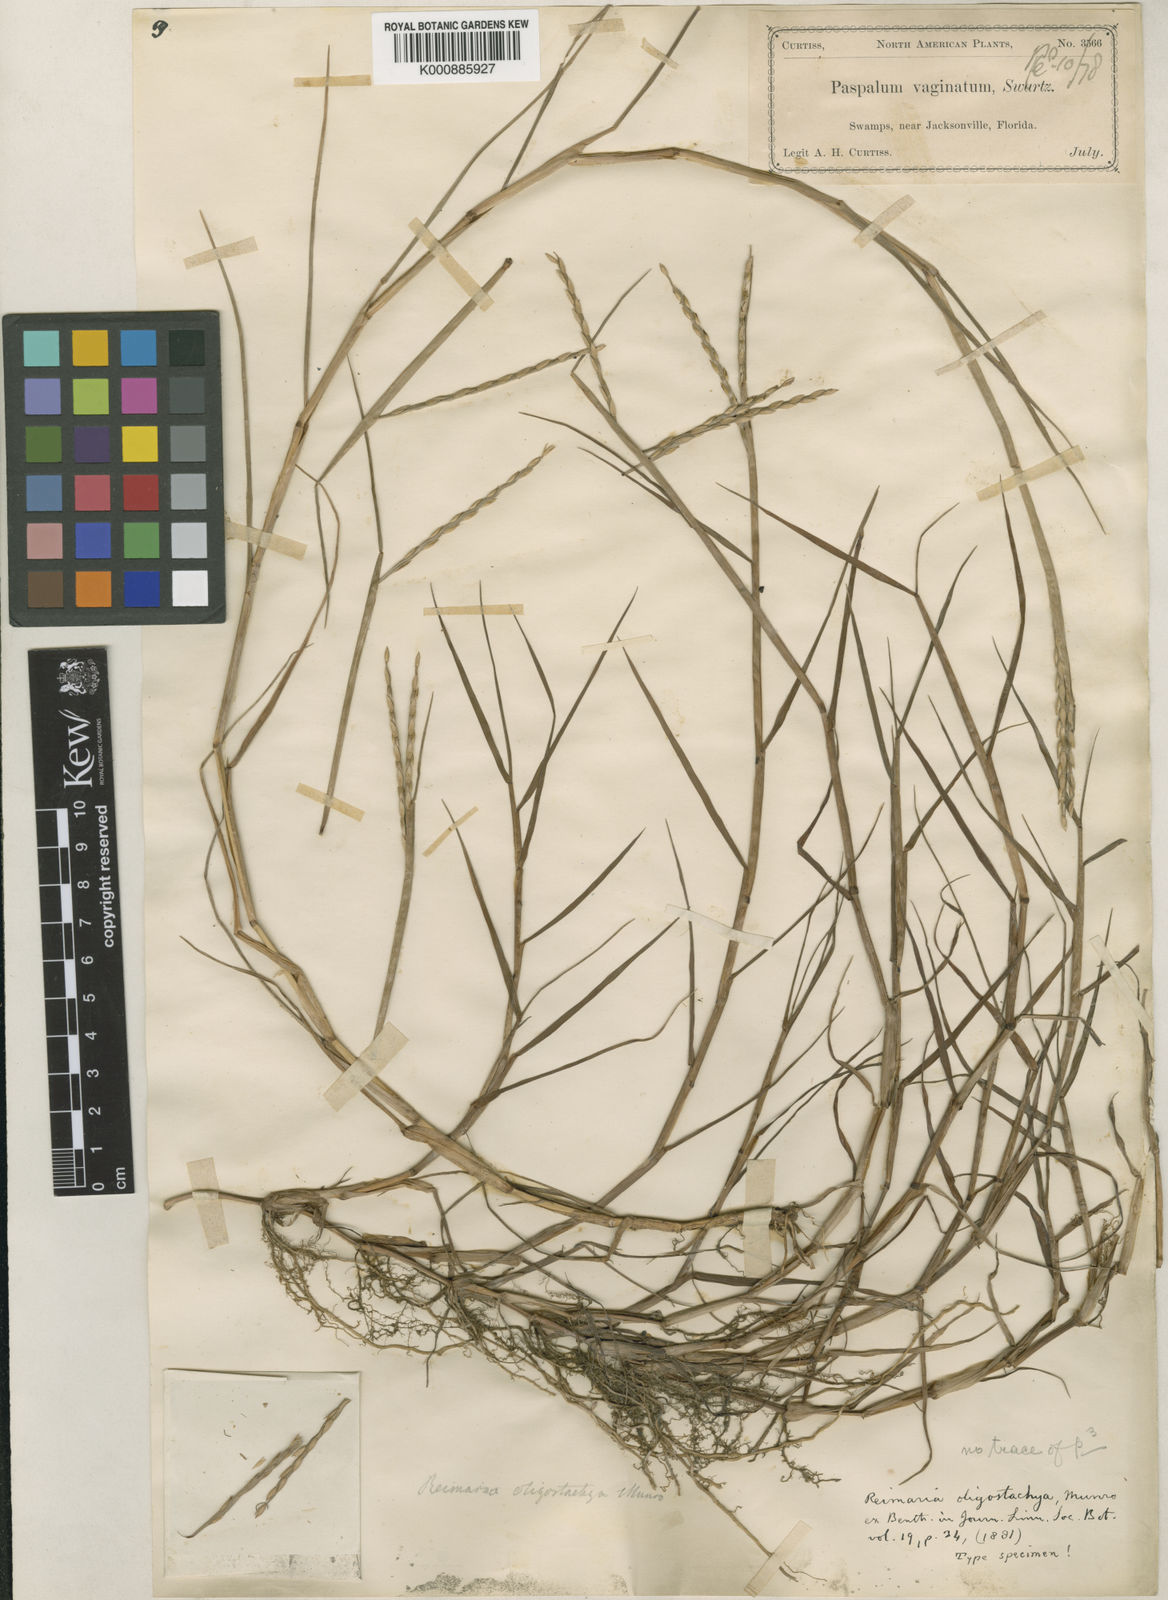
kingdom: Plantae
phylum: Tracheophyta
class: Liliopsida
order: Poales
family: Poaceae
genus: Paspalum
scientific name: Paspalum eglume
